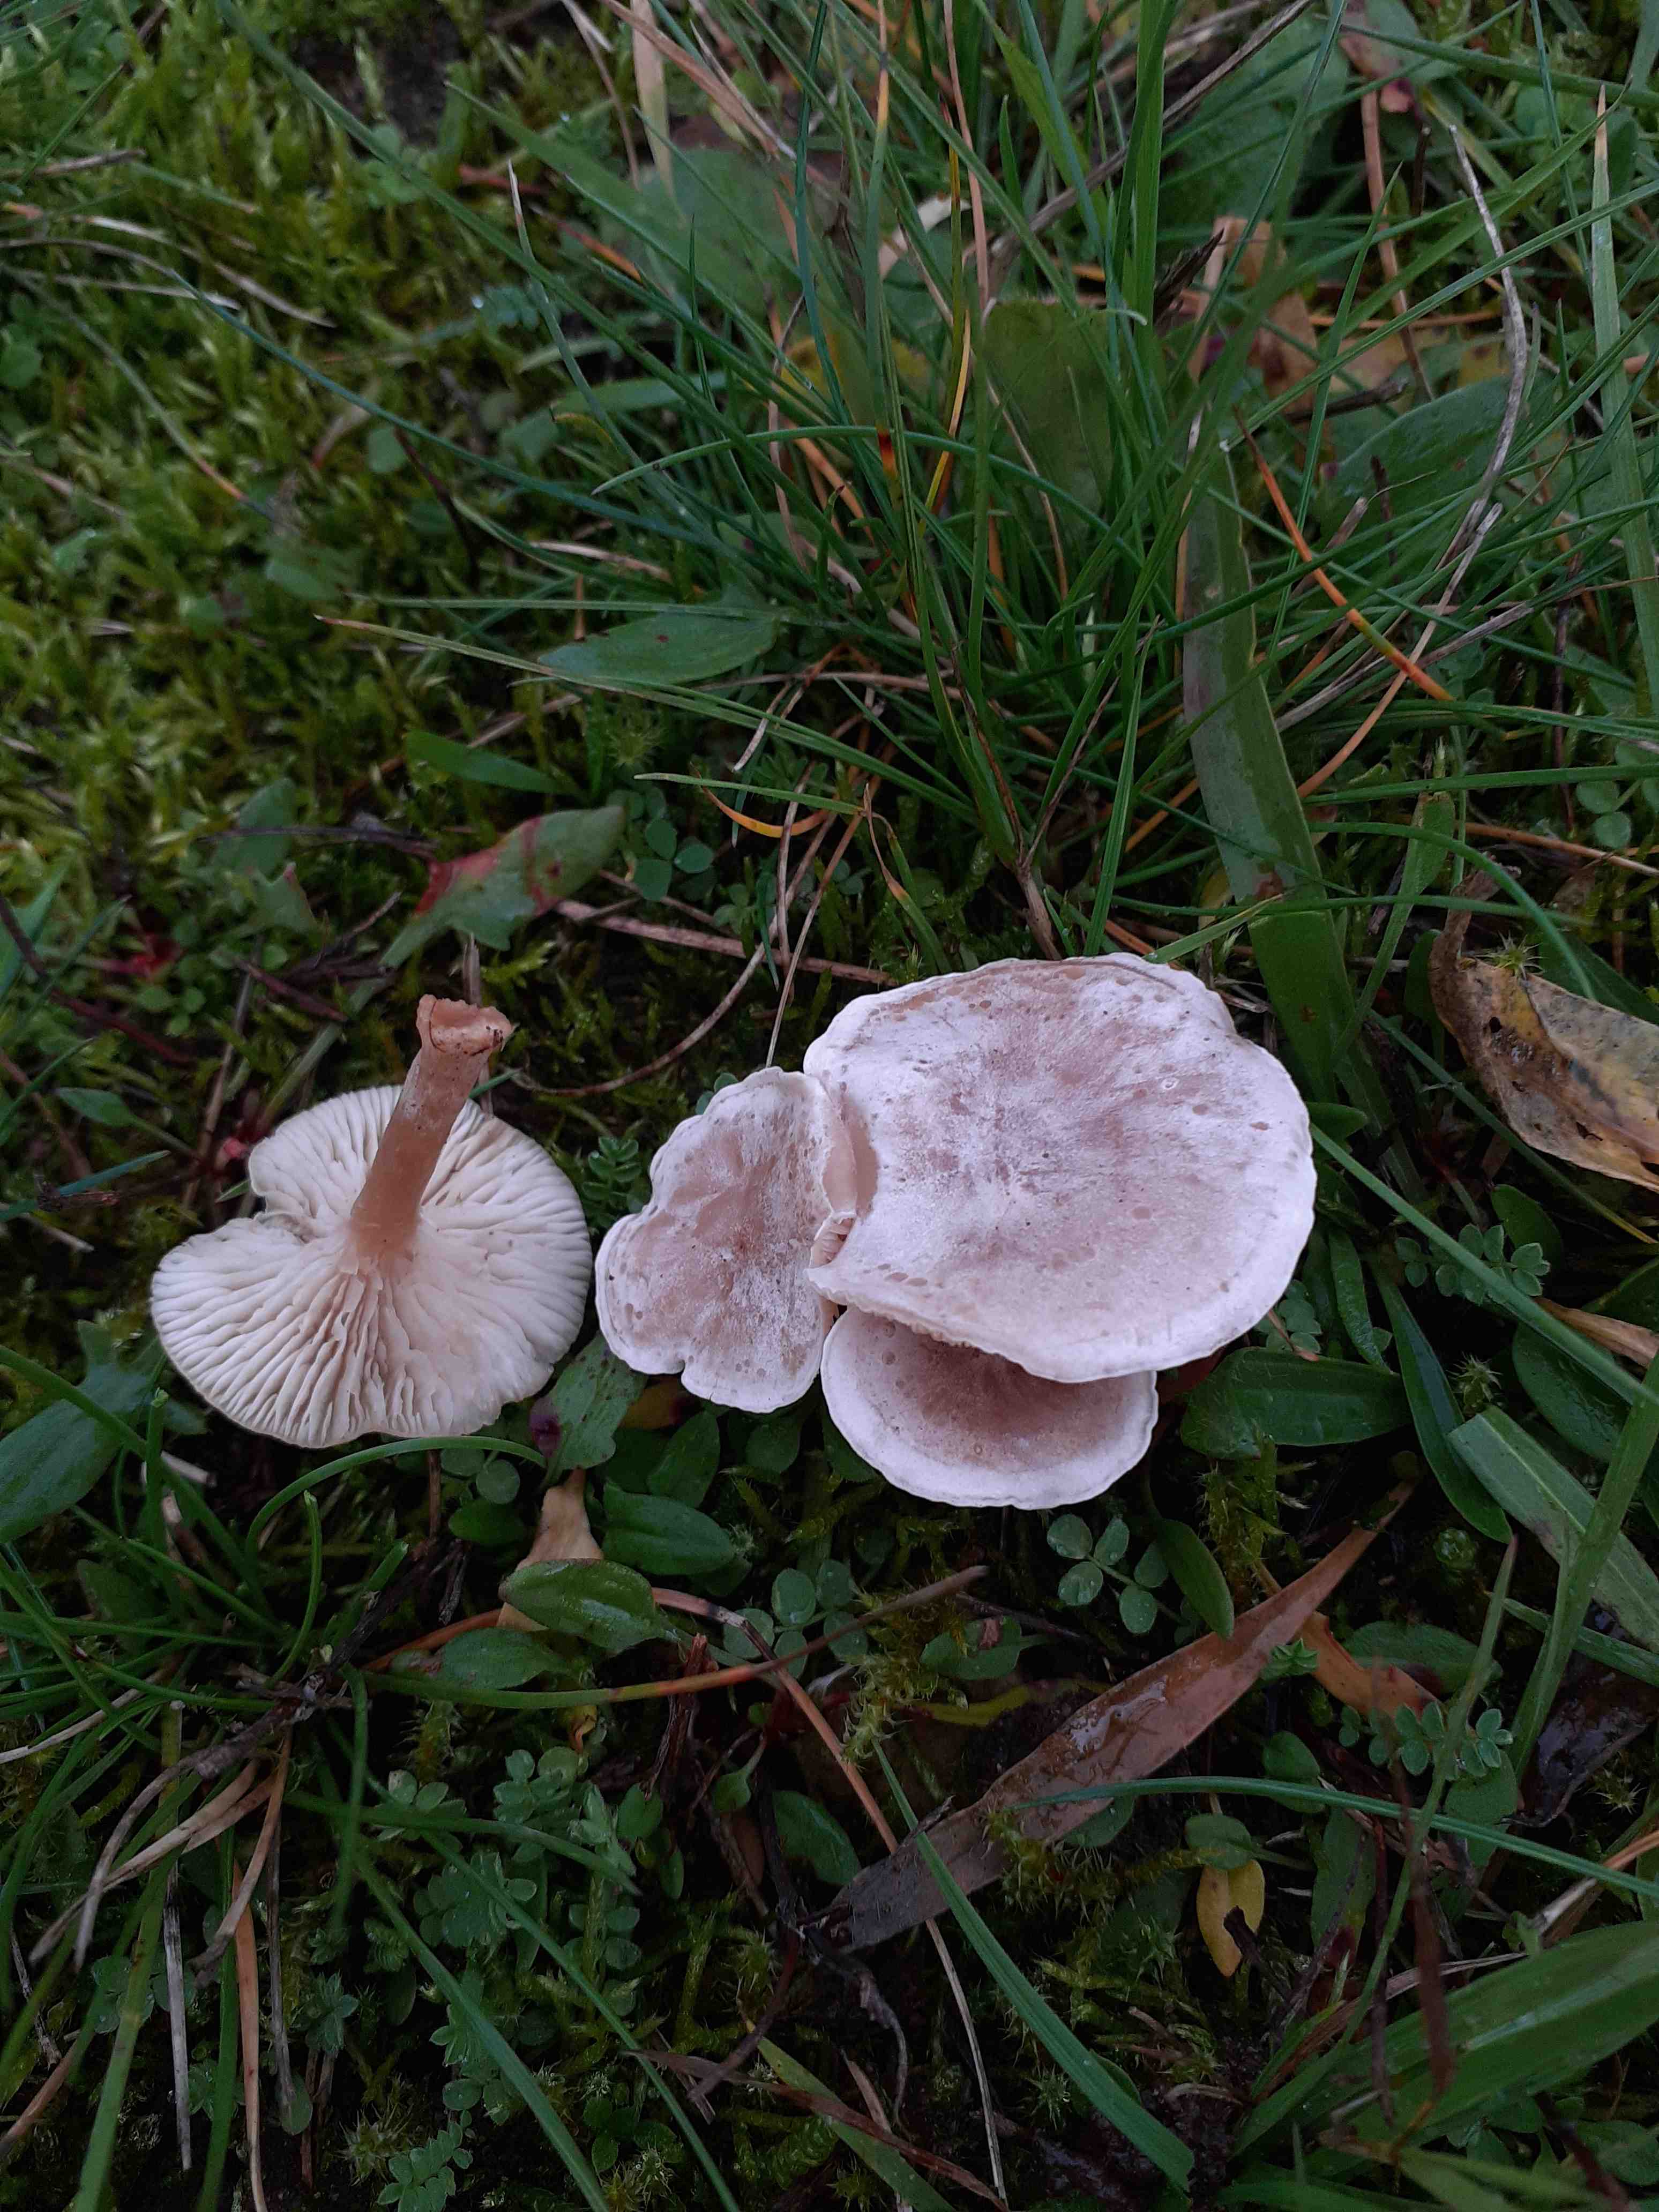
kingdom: Fungi
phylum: Basidiomycota
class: Agaricomycetes
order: Agaricales
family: Tricholomataceae
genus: Clitocybe
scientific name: Clitocybe rivulosa
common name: eng-tragthat
